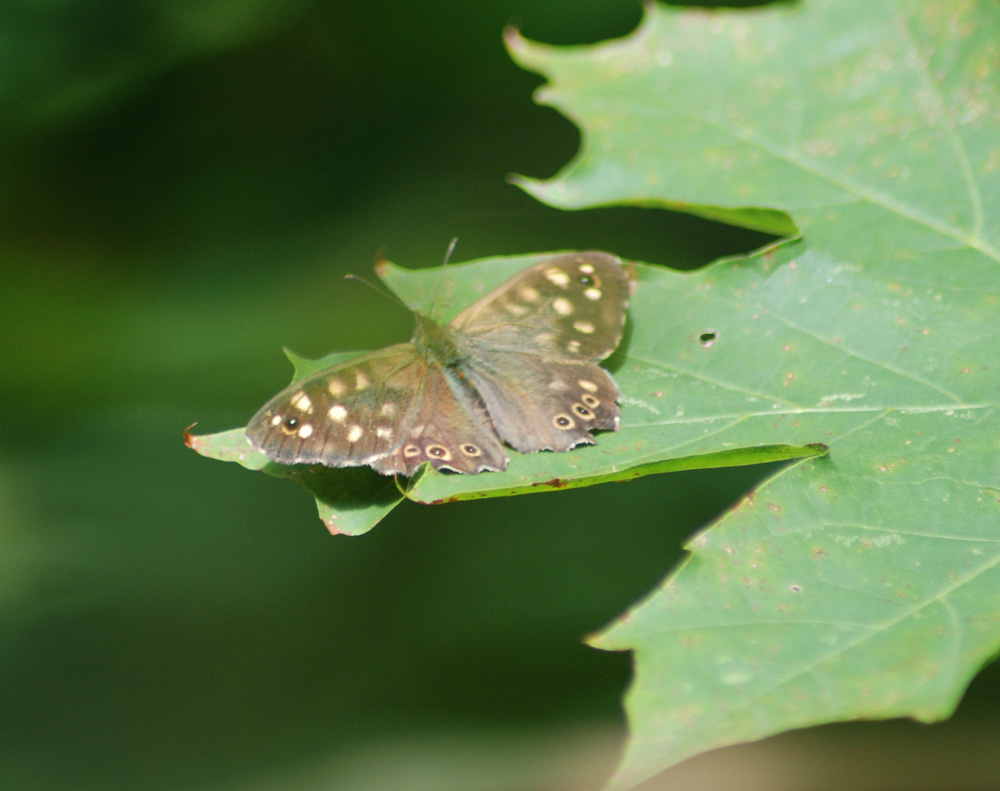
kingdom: Animalia
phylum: Arthropoda
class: Insecta
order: Lepidoptera
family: Nymphalidae
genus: Pararge
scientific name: Pararge aegeria
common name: Speckled wood
